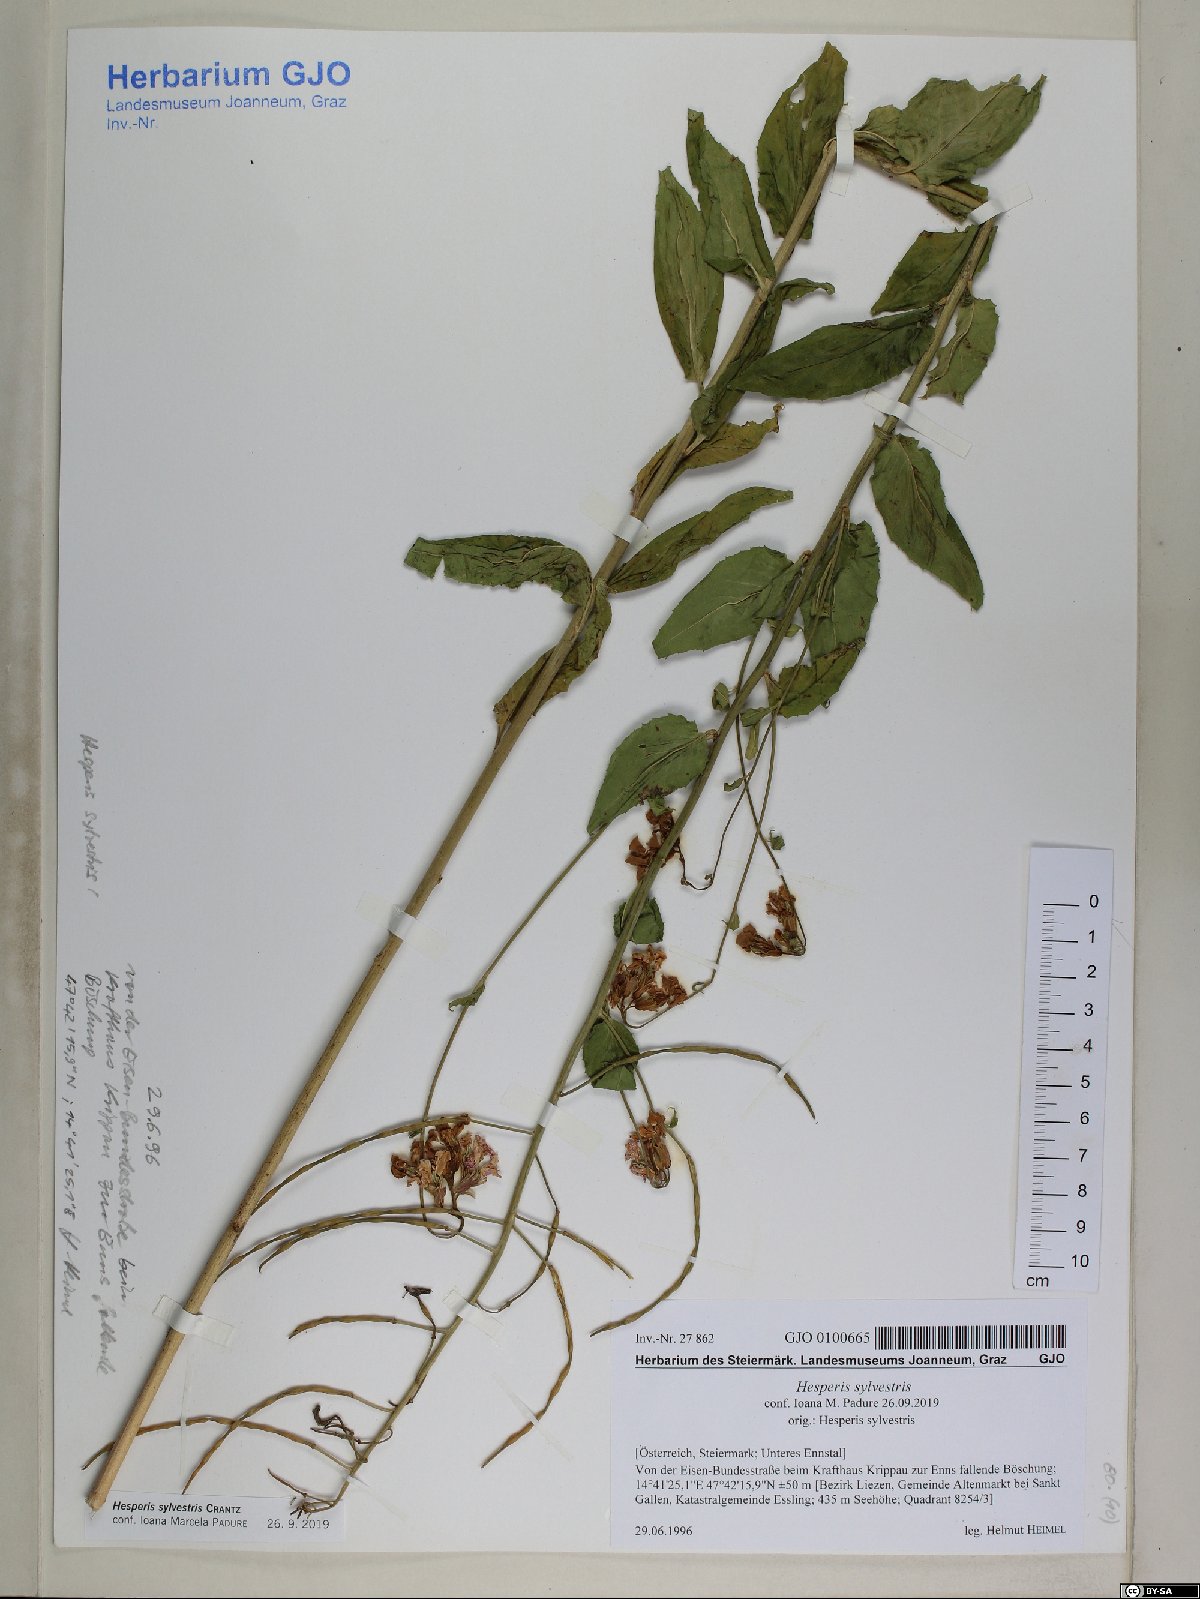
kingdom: Plantae
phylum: Tracheophyta
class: Magnoliopsida
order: Brassicales
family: Brassicaceae
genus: Hesperis
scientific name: Hesperis sylvestris
